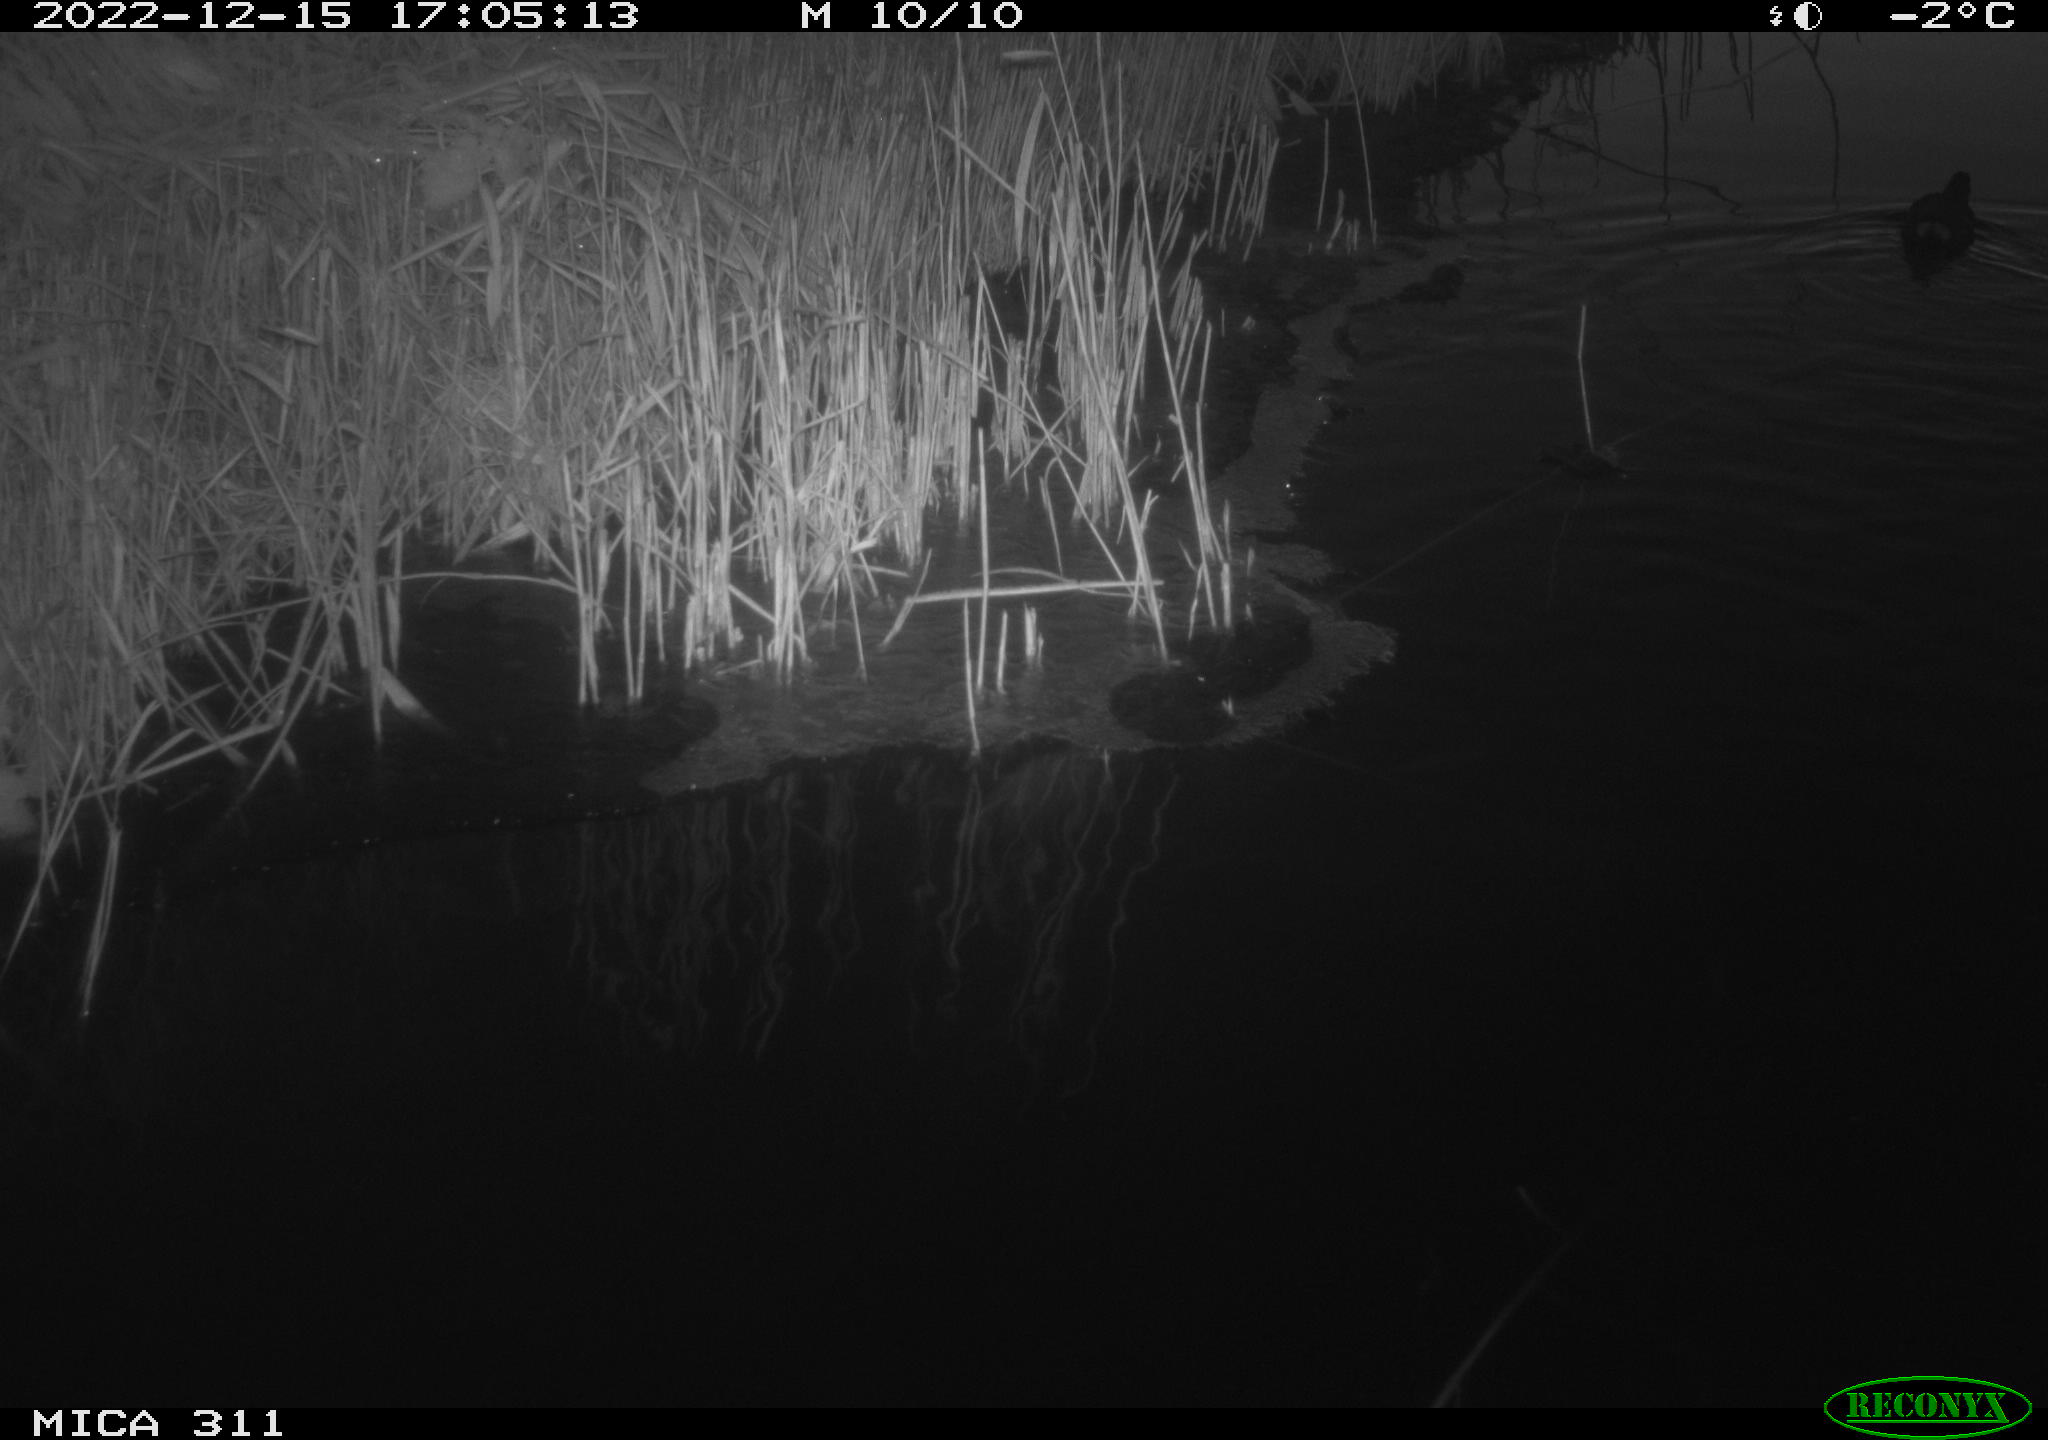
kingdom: Animalia
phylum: Chordata
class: Aves
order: Gruiformes
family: Rallidae
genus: Gallinula
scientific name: Gallinula chloropus
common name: Common moorhen
